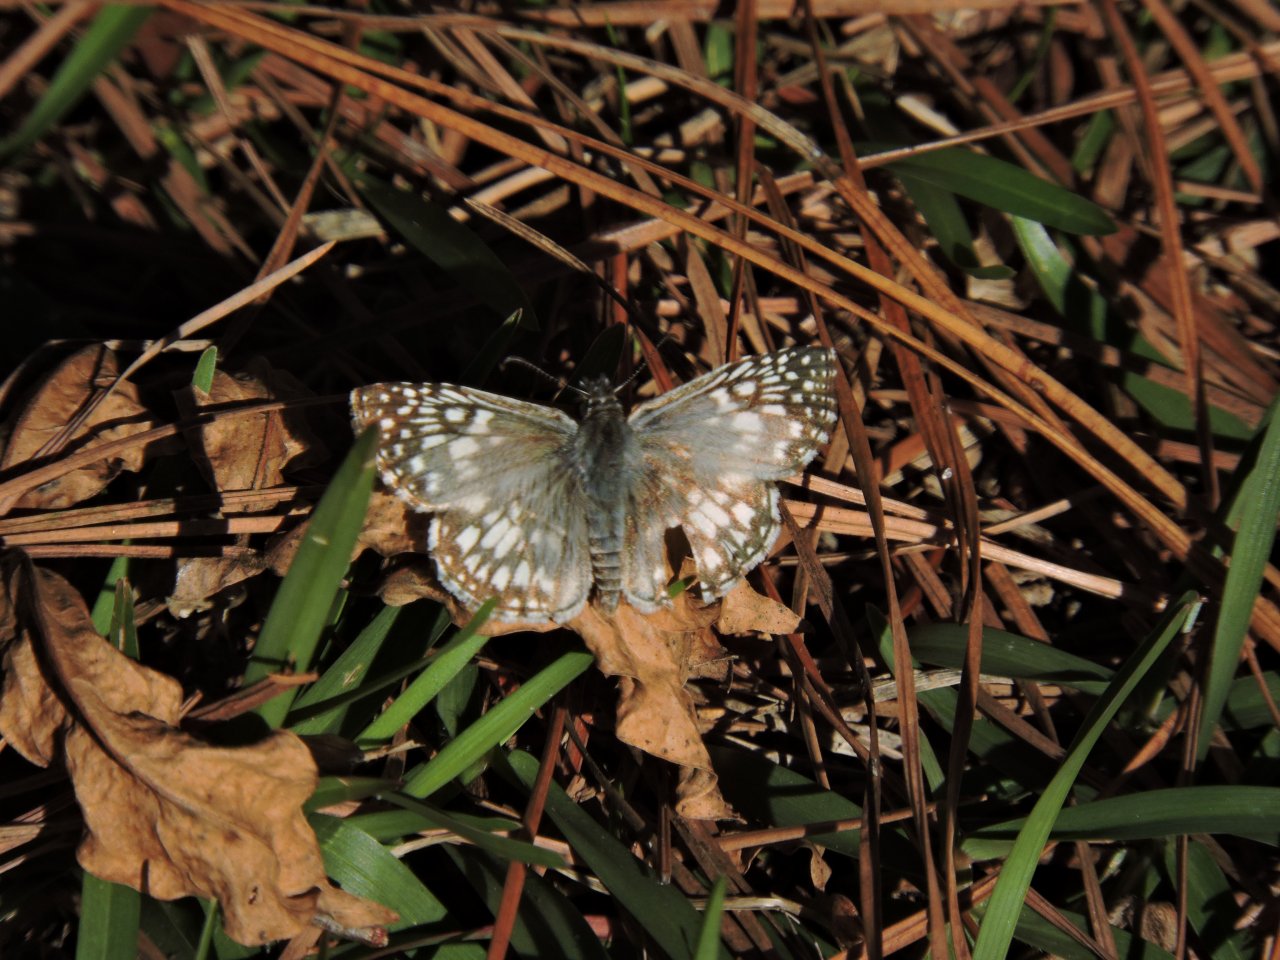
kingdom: Animalia
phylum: Arthropoda
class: Insecta
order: Lepidoptera
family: Hesperiidae
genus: Pyrgus
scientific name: Pyrgus oileus
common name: Tropical Checkered-Skipper
